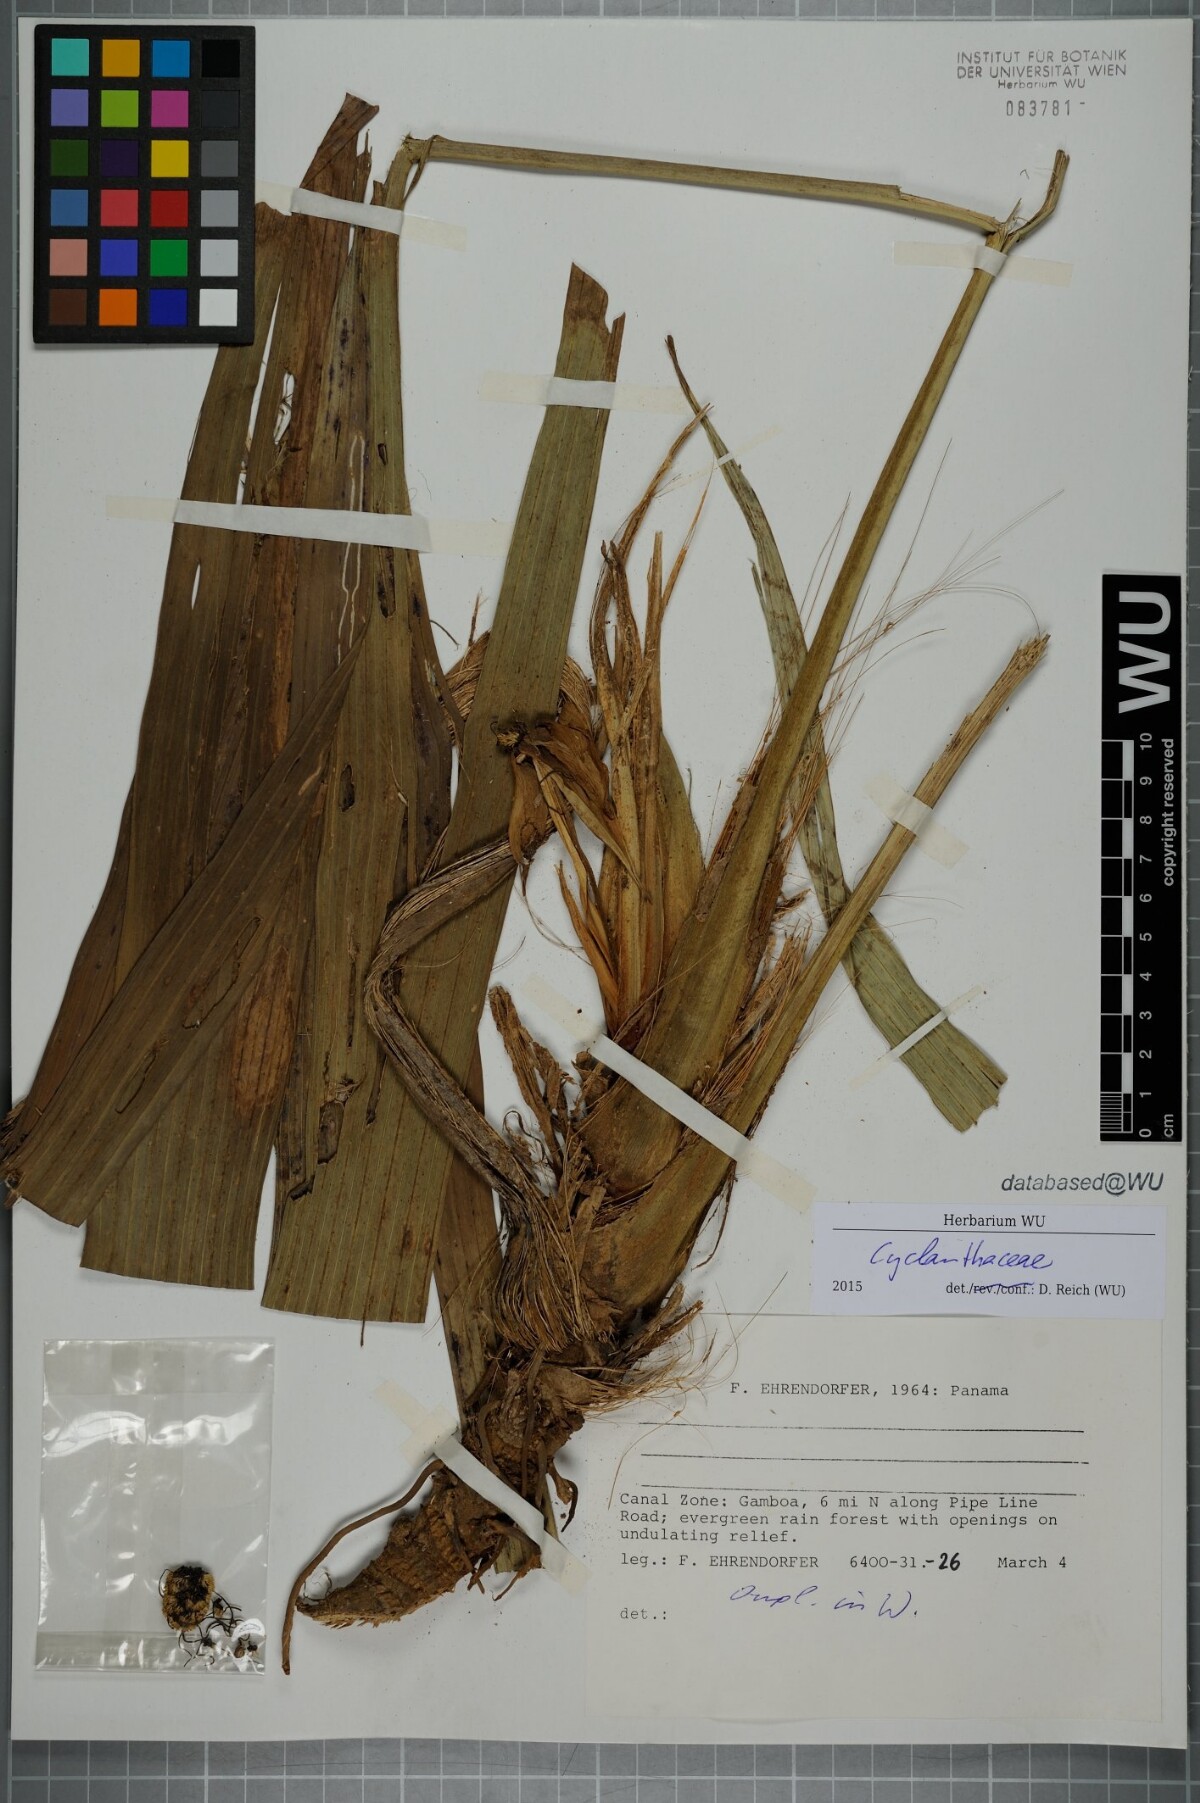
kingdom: Plantae
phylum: Tracheophyta
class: Liliopsida
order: Pandanales
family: Cyclanthaceae
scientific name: Cyclanthaceae
